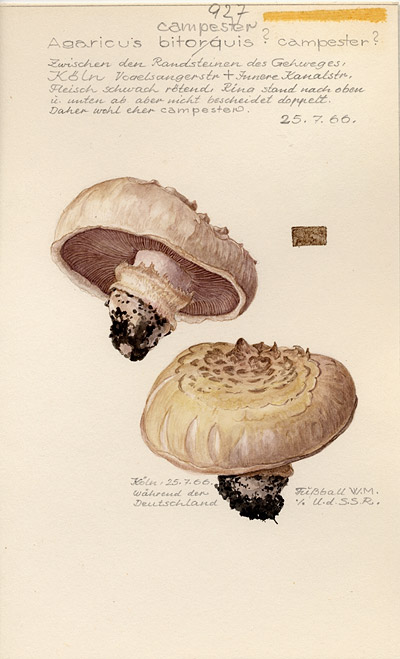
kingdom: Fungi
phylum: Basidiomycota
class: Agaricomycetes
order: Agaricales
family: Agaricaceae
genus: Agaricus
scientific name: Agaricus campestris
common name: Field mushroom
